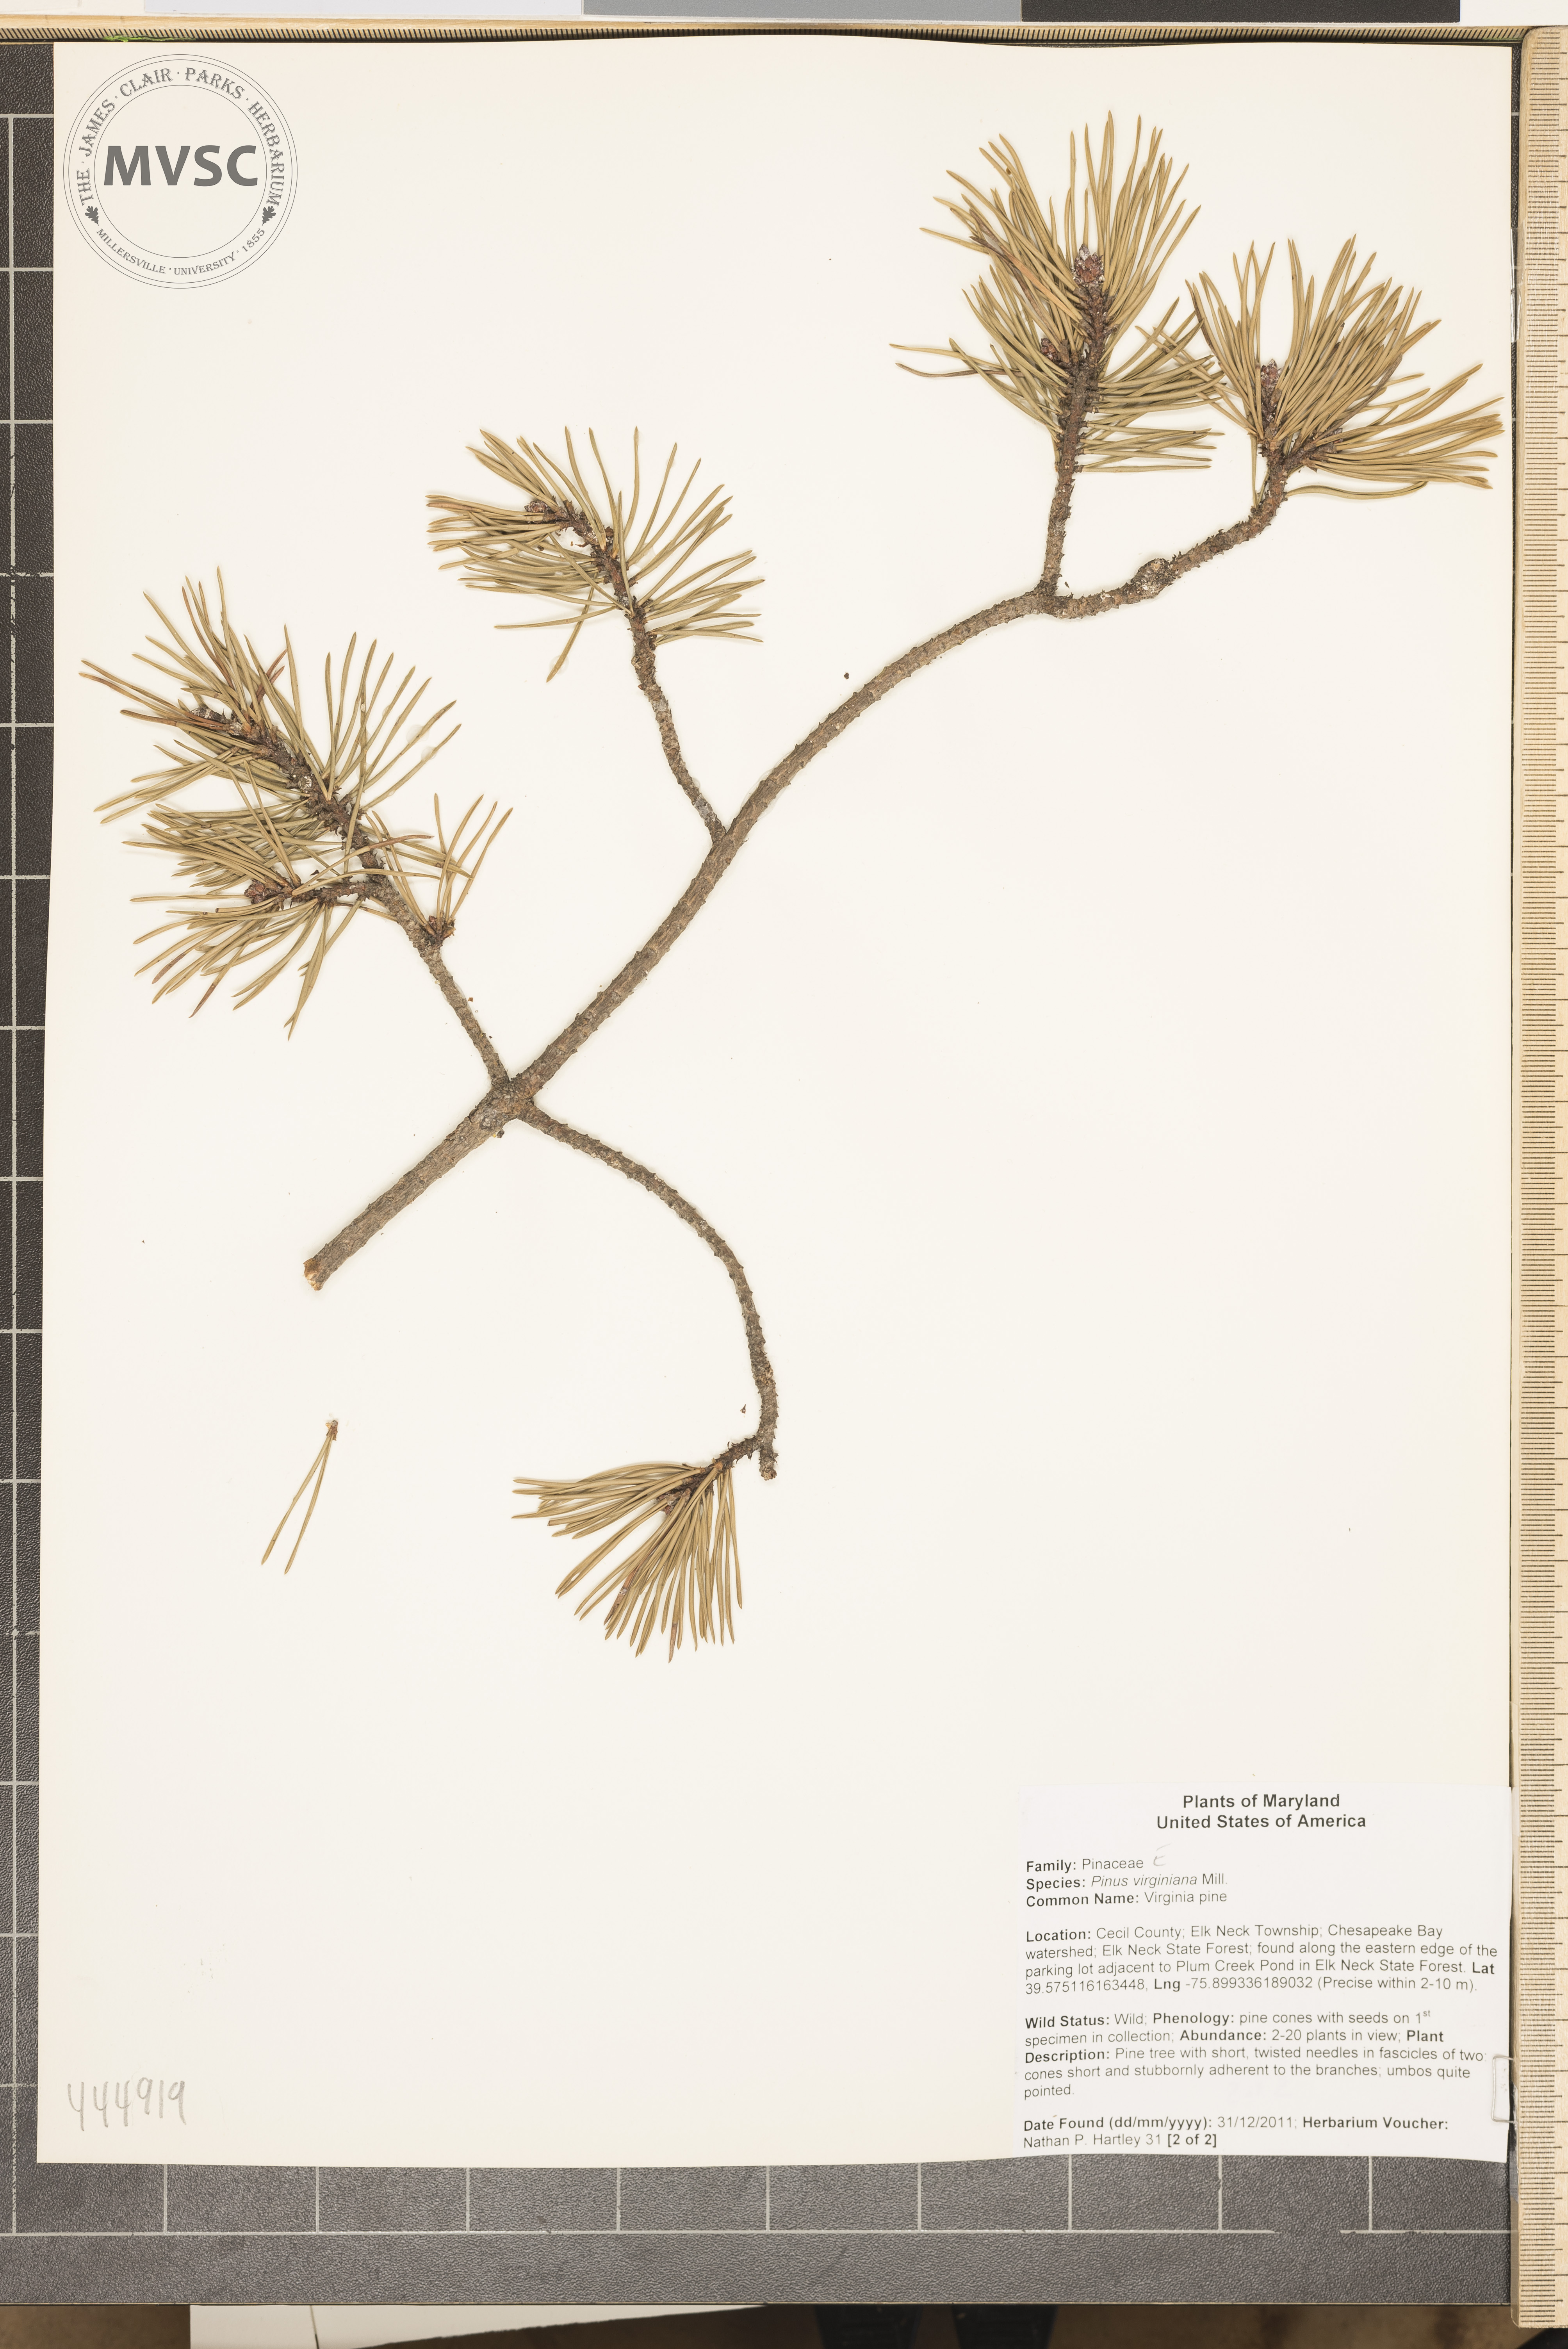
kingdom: Plantae
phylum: Tracheophyta
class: Pinopsida
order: Pinales
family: Pinaceae
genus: Pinus
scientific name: Pinus virginiana
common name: Virginia pine
